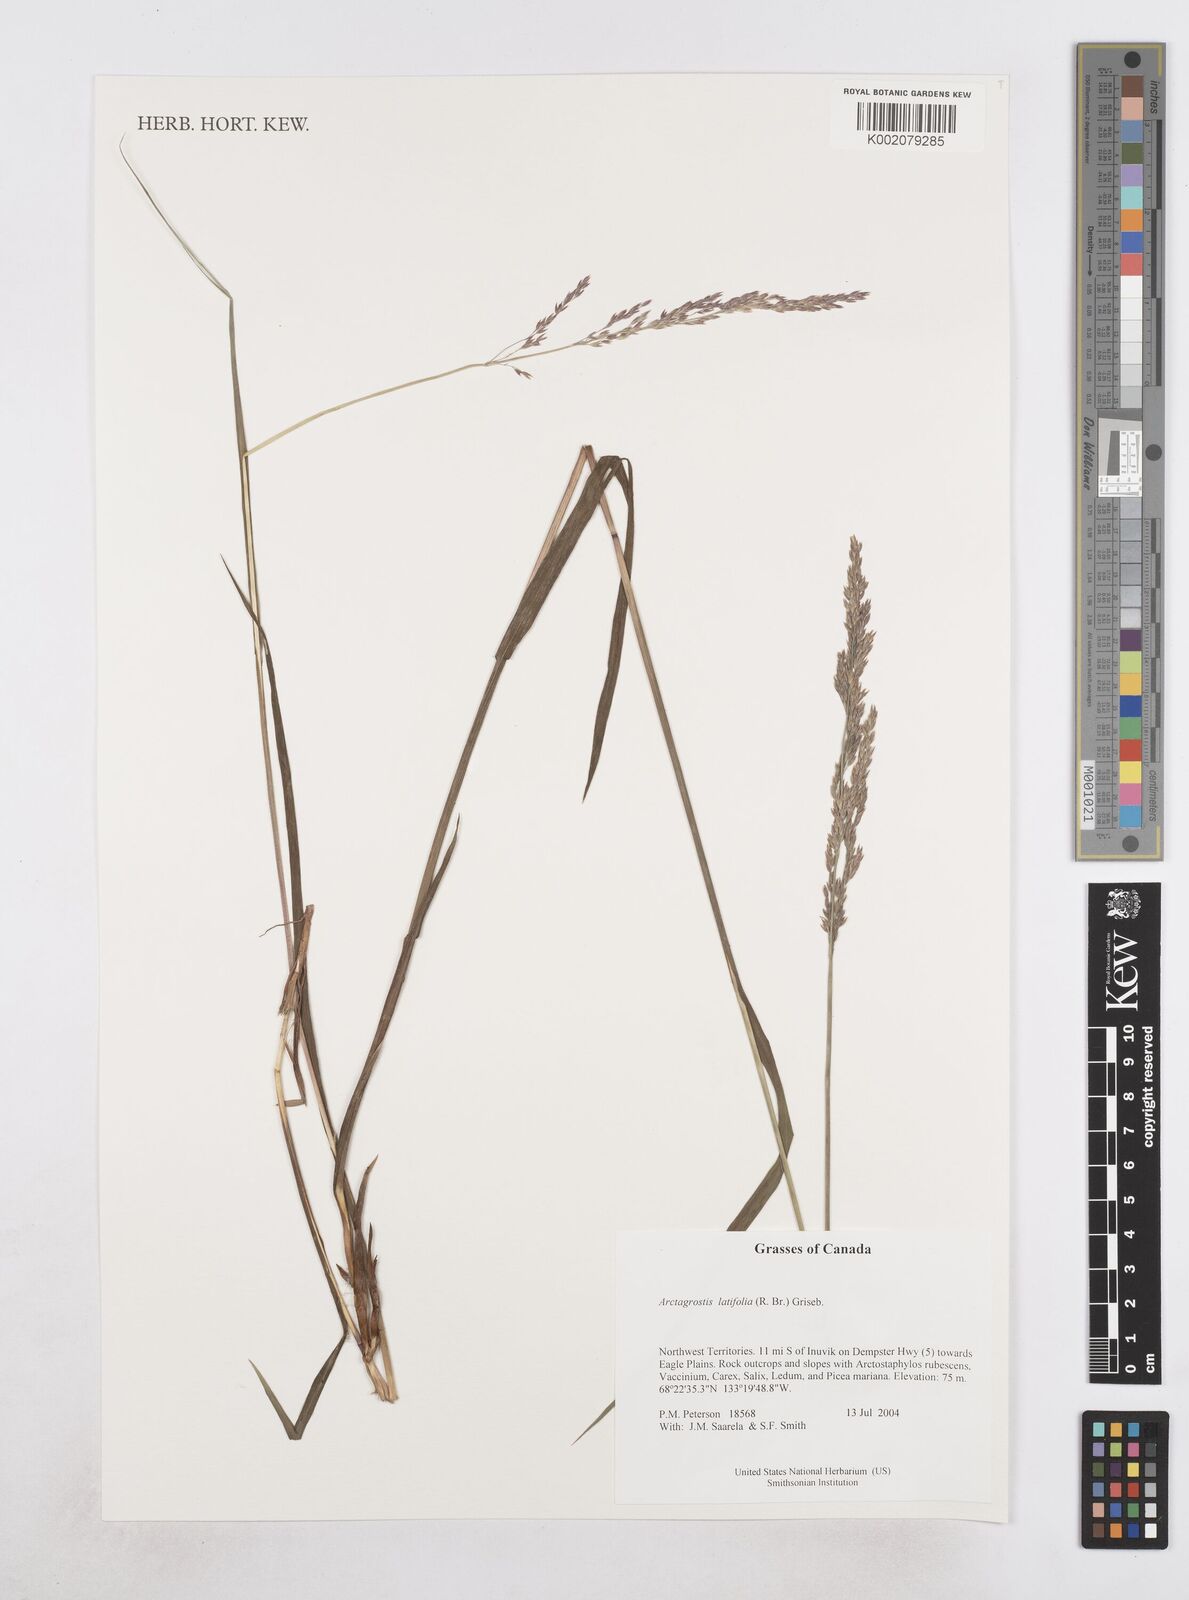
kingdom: Plantae
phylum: Tracheophyta
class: Liliopsida
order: Poales
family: Poaceae
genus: Arctagrostis
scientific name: Arctagrostis latifolia
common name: Arctic grass
